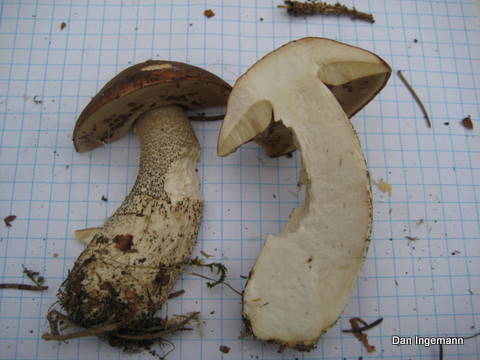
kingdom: Fungi
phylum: Basidiomycota
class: Agaricomycetes
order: Boletales
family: Boletaceae
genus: Leccinum
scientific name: Leccinum scabrum
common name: brun skælrørhat
